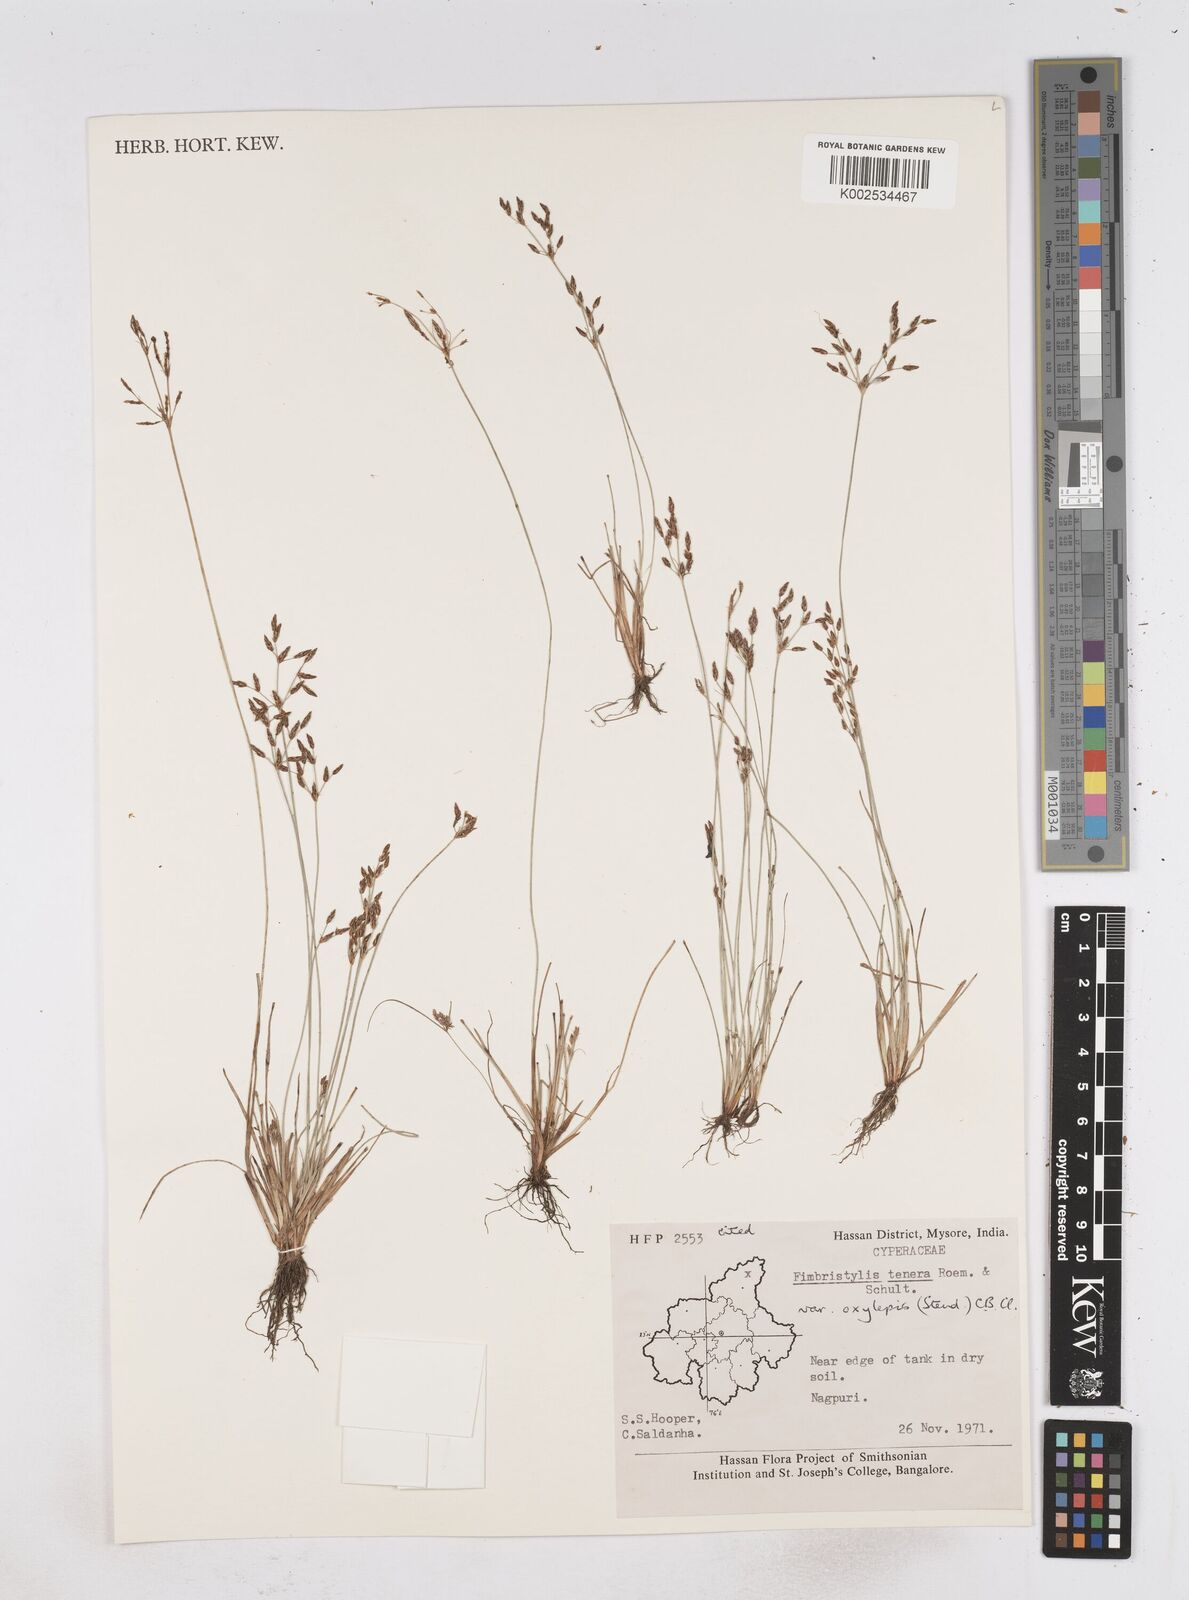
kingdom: Plantae
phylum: Tracheophyta
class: Liliopsida
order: Poales
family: Cyperaceae
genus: Fimbristylis
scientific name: Fimbristylis tenera
